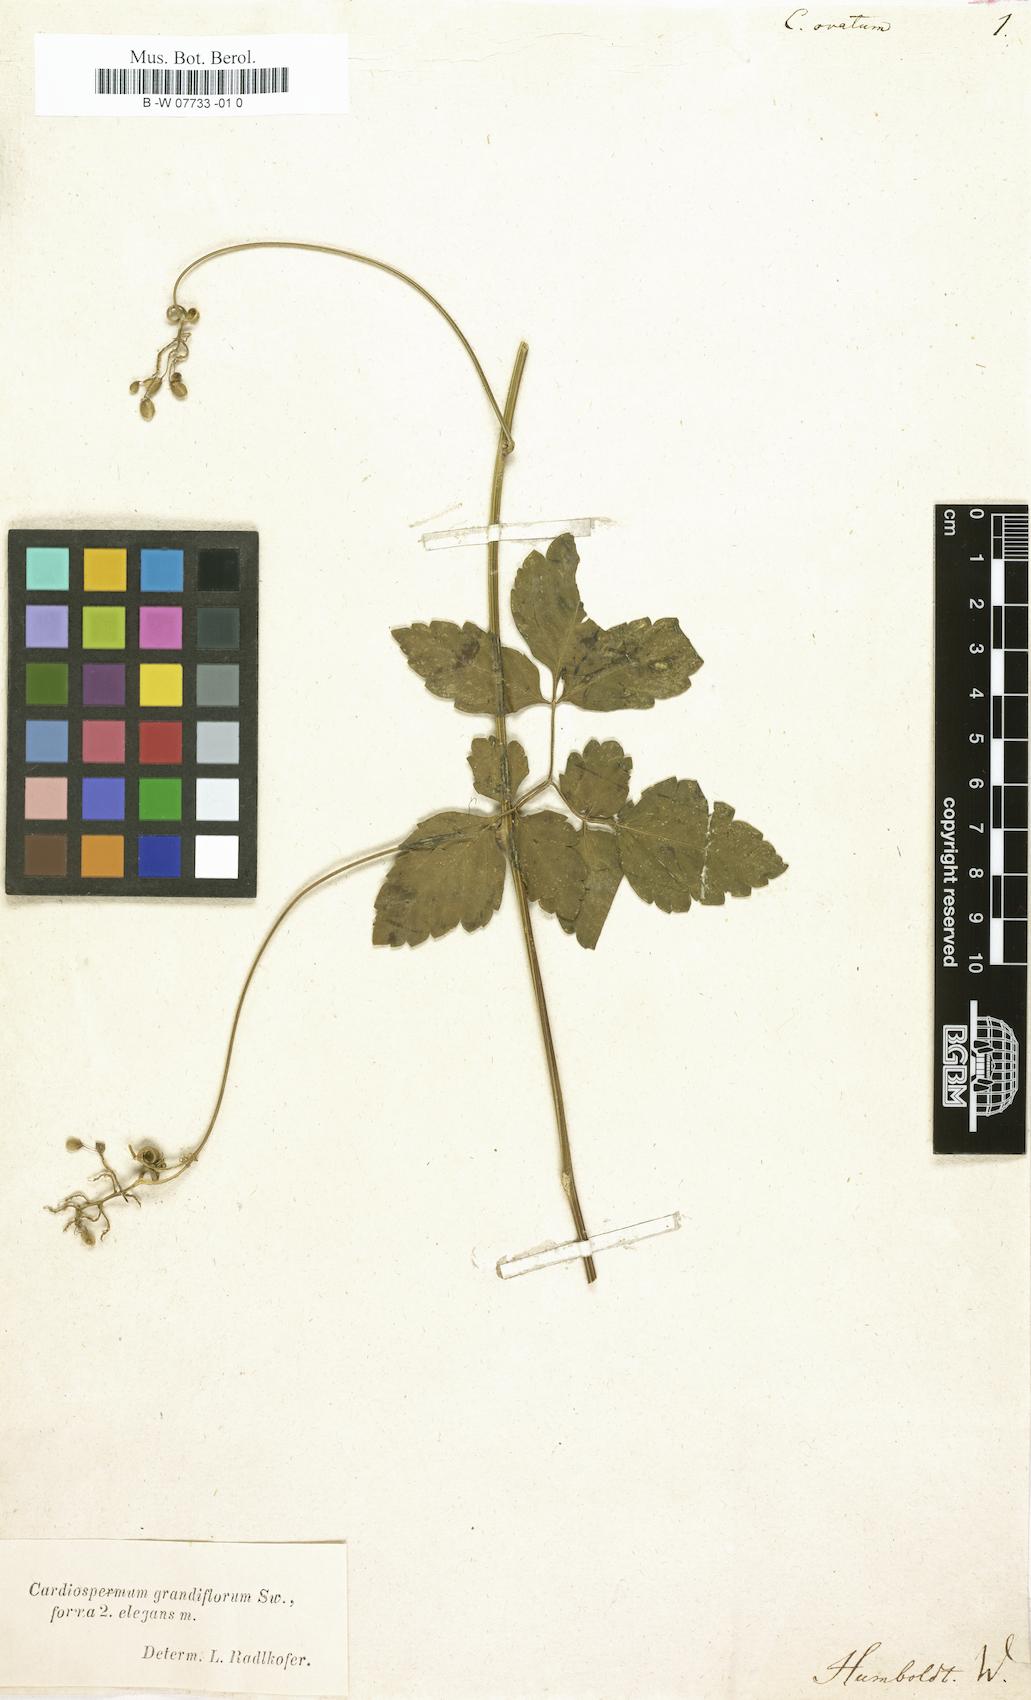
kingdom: Plantae
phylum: Tracheophyta
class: Magnoliopsida
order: Sapindales
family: Sapindaceae
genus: Cardiospermum
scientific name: Cardiospermum corindum
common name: Faux persil
